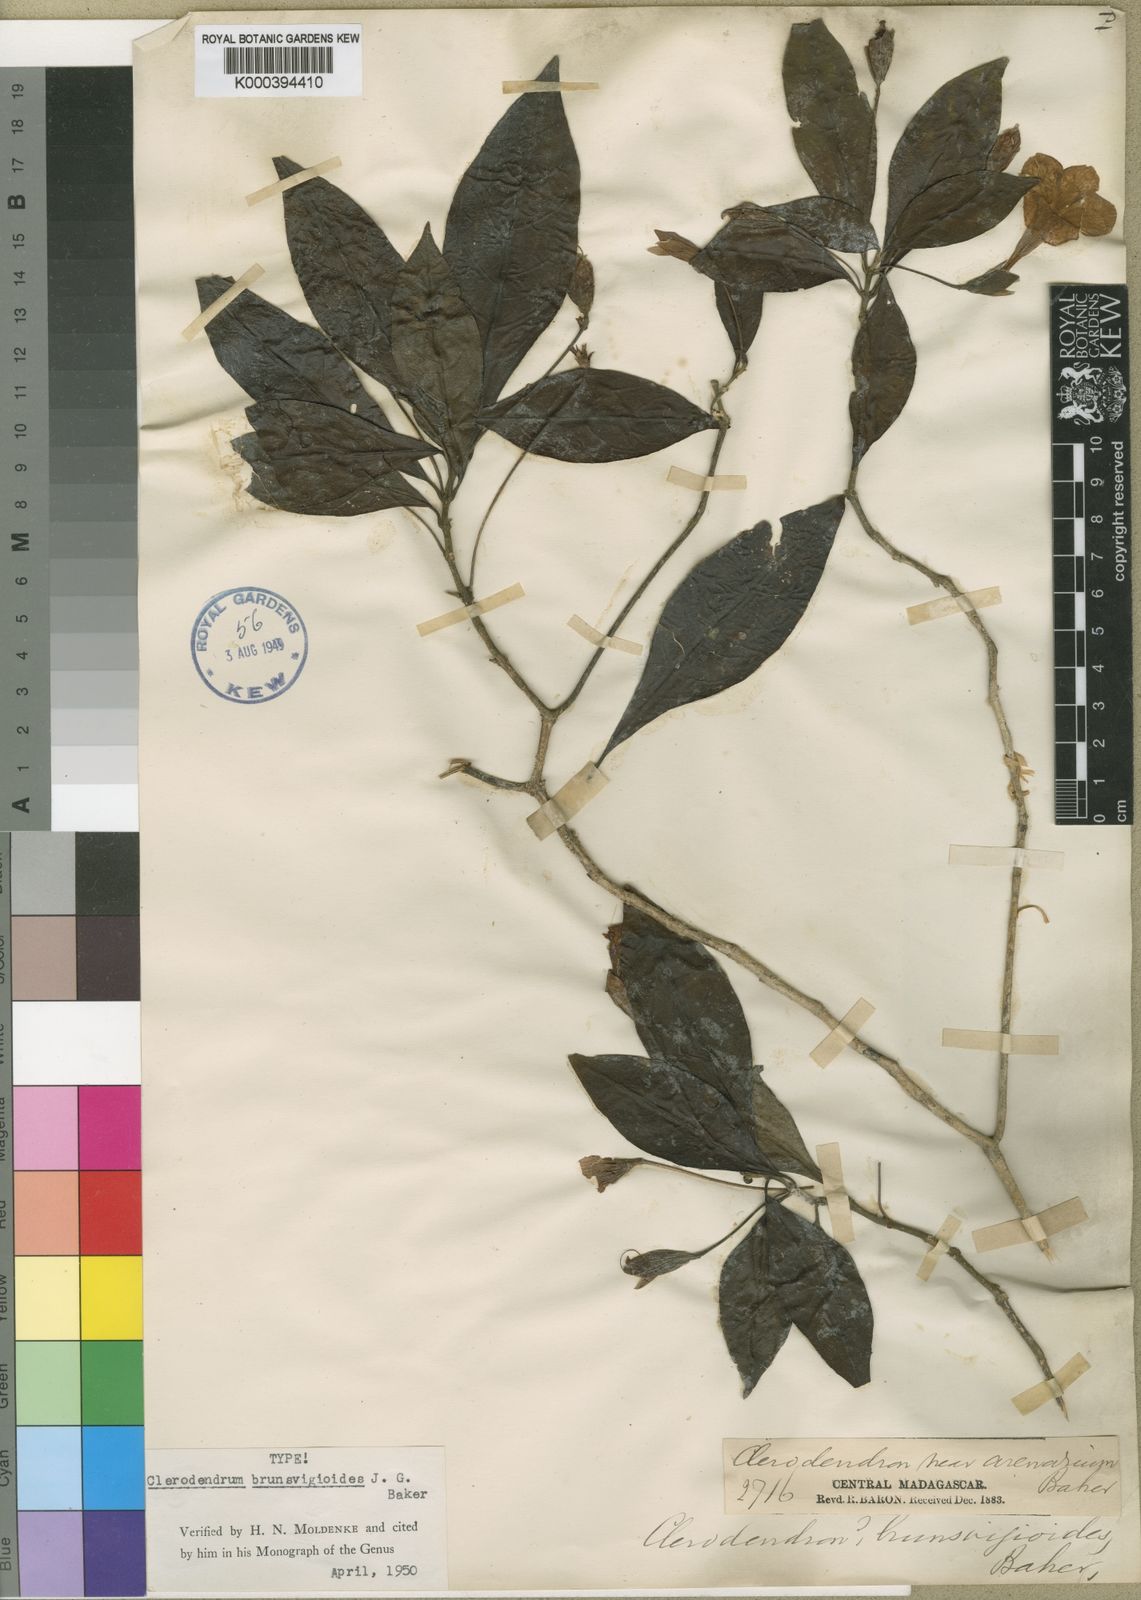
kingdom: Plantae
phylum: Tracheophyta
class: Magnoliopsida
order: Lamiales
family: Acanthaceae
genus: Boutonia
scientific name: Boutonia cuspidata
